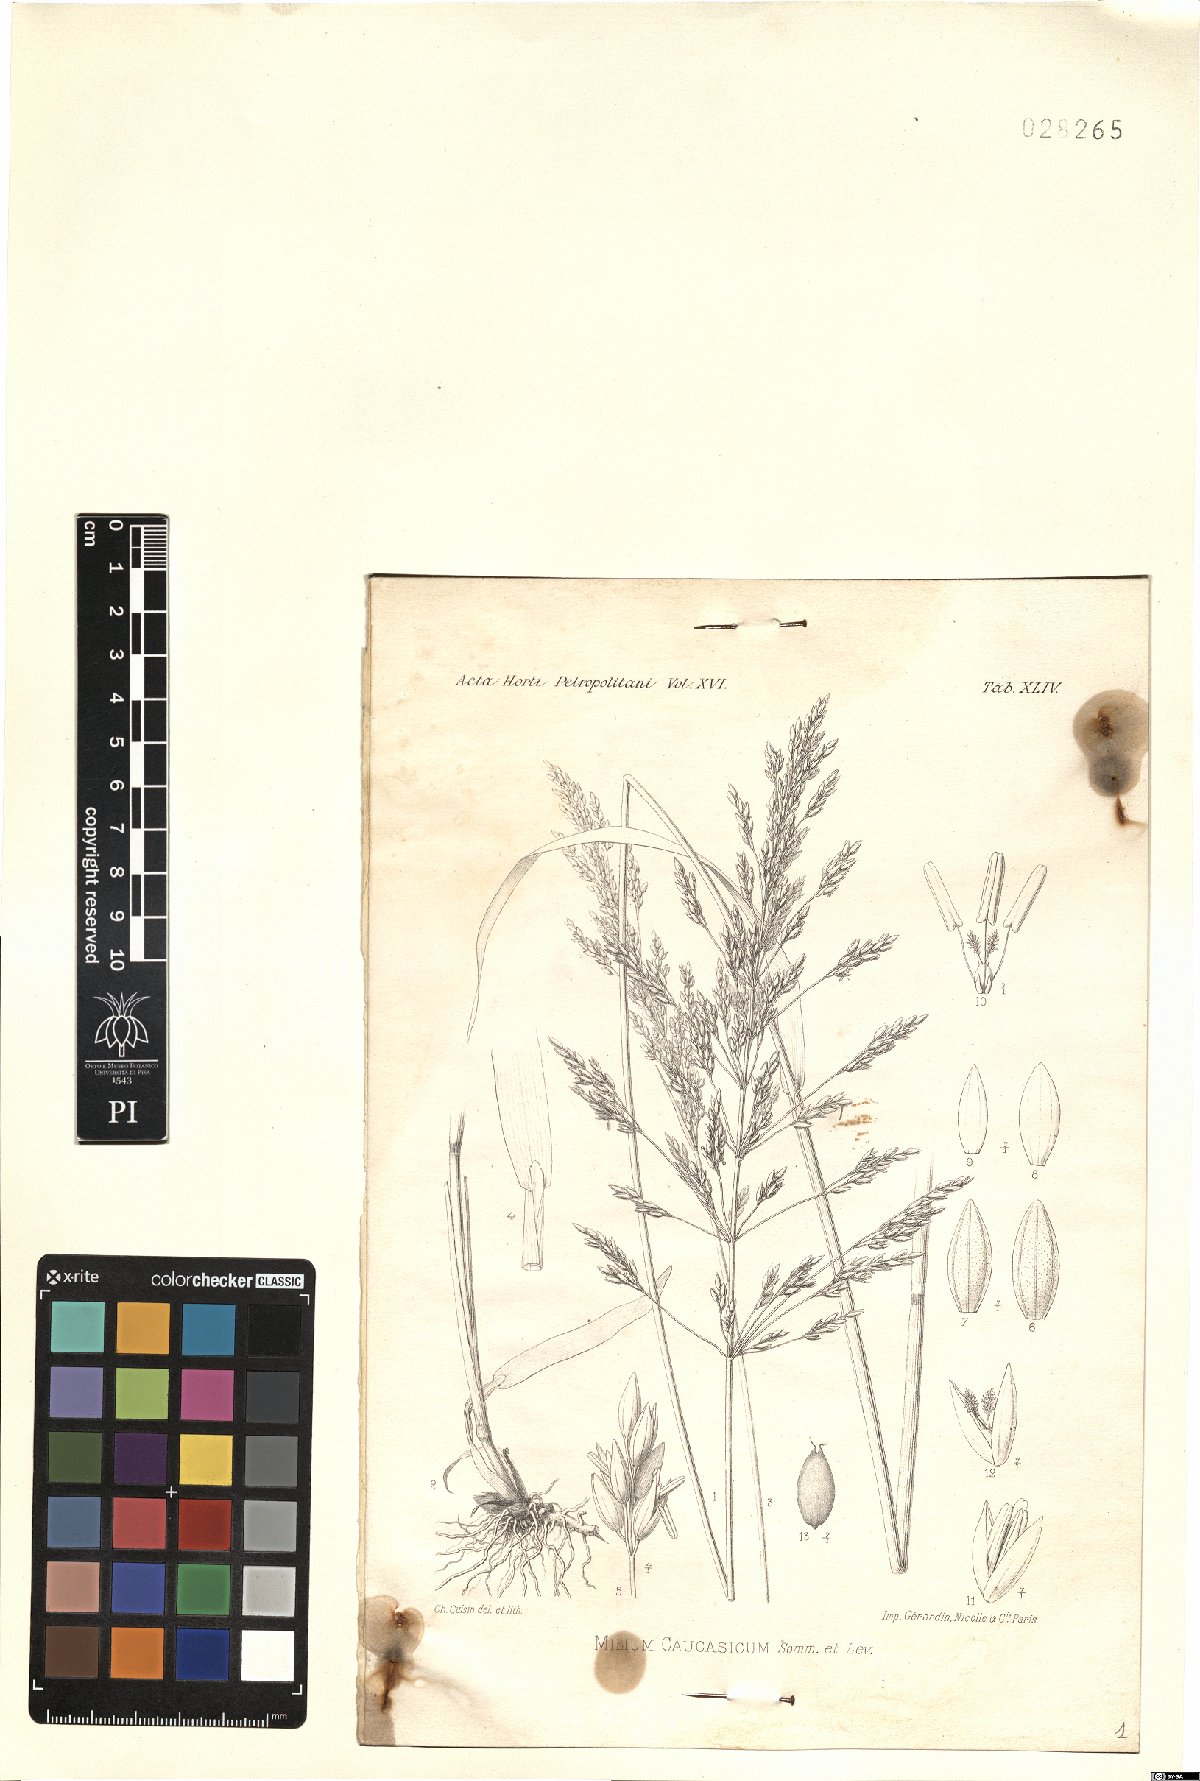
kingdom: Plantae
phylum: Tracheophyta
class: Liliopsida
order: Poales
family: Poaceae
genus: Milium
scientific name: Milium schmidtianum
